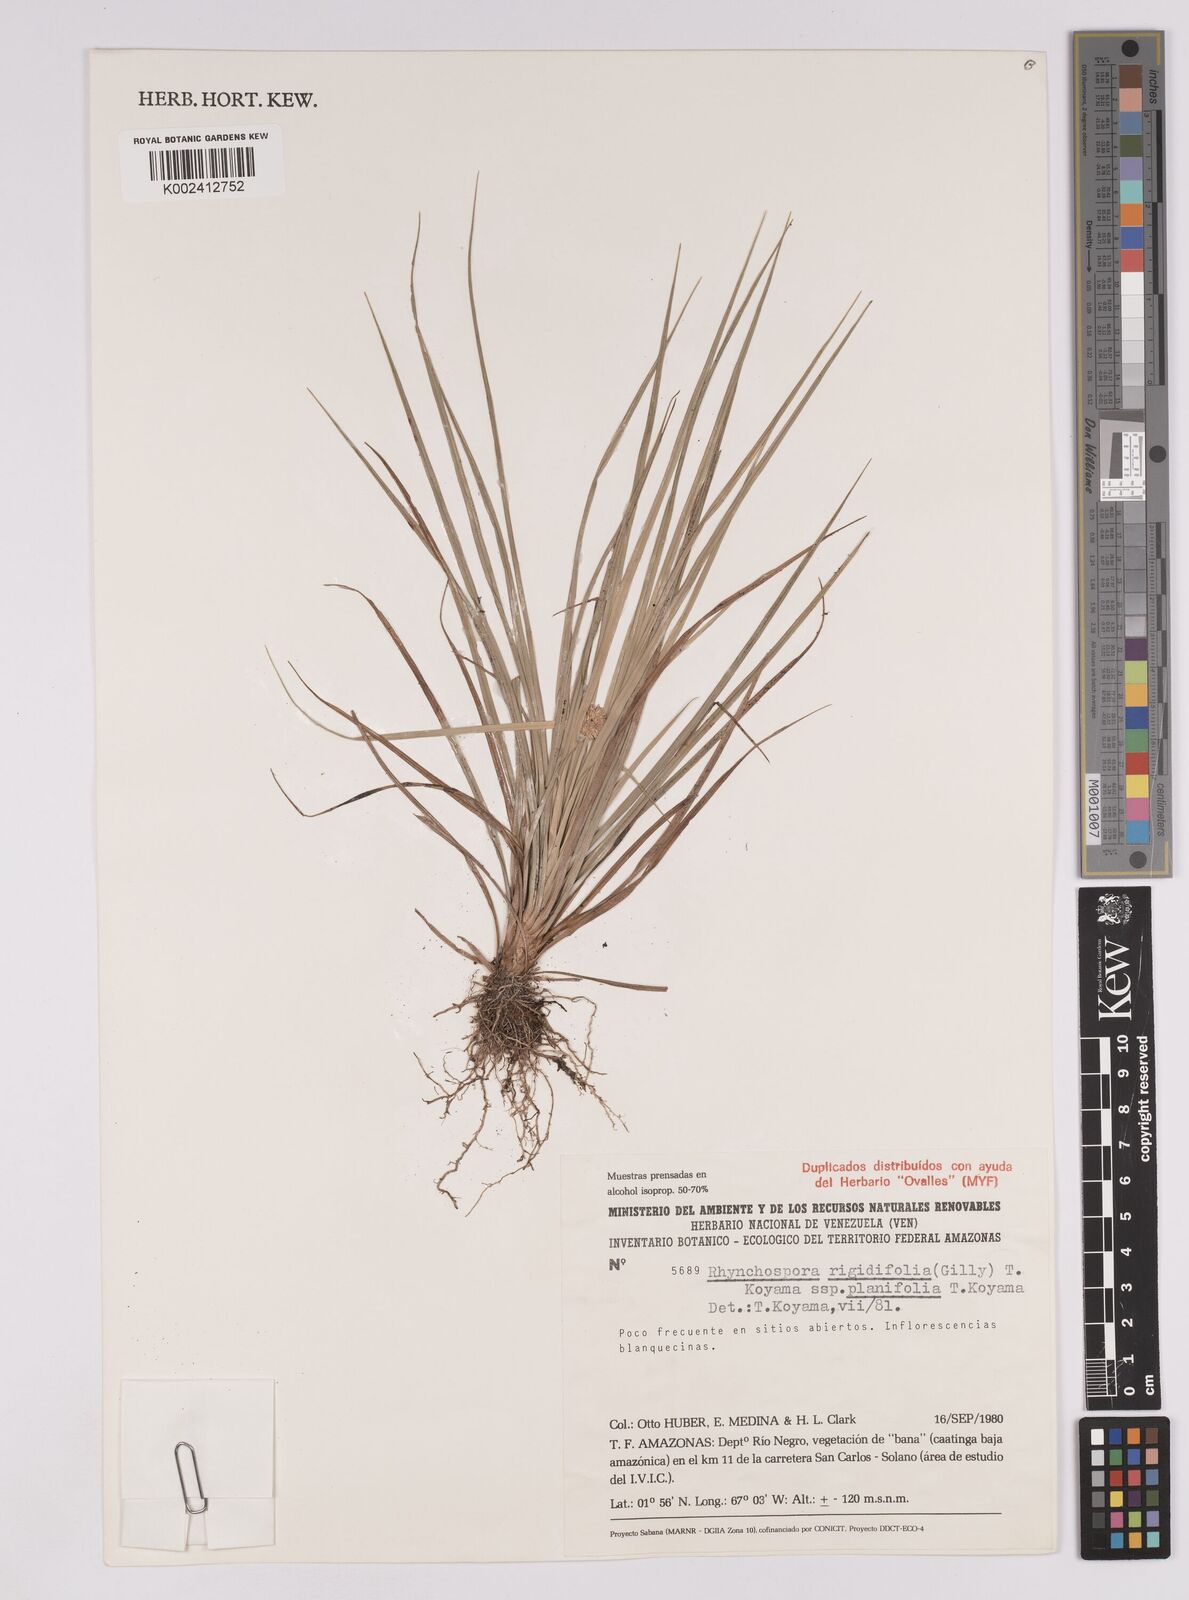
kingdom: Plantae
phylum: Tracheophyta
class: Liliopsida
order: Poales
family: Cyperaceae
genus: Rhynchospora
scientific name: Rhynchospora rigidifolia
